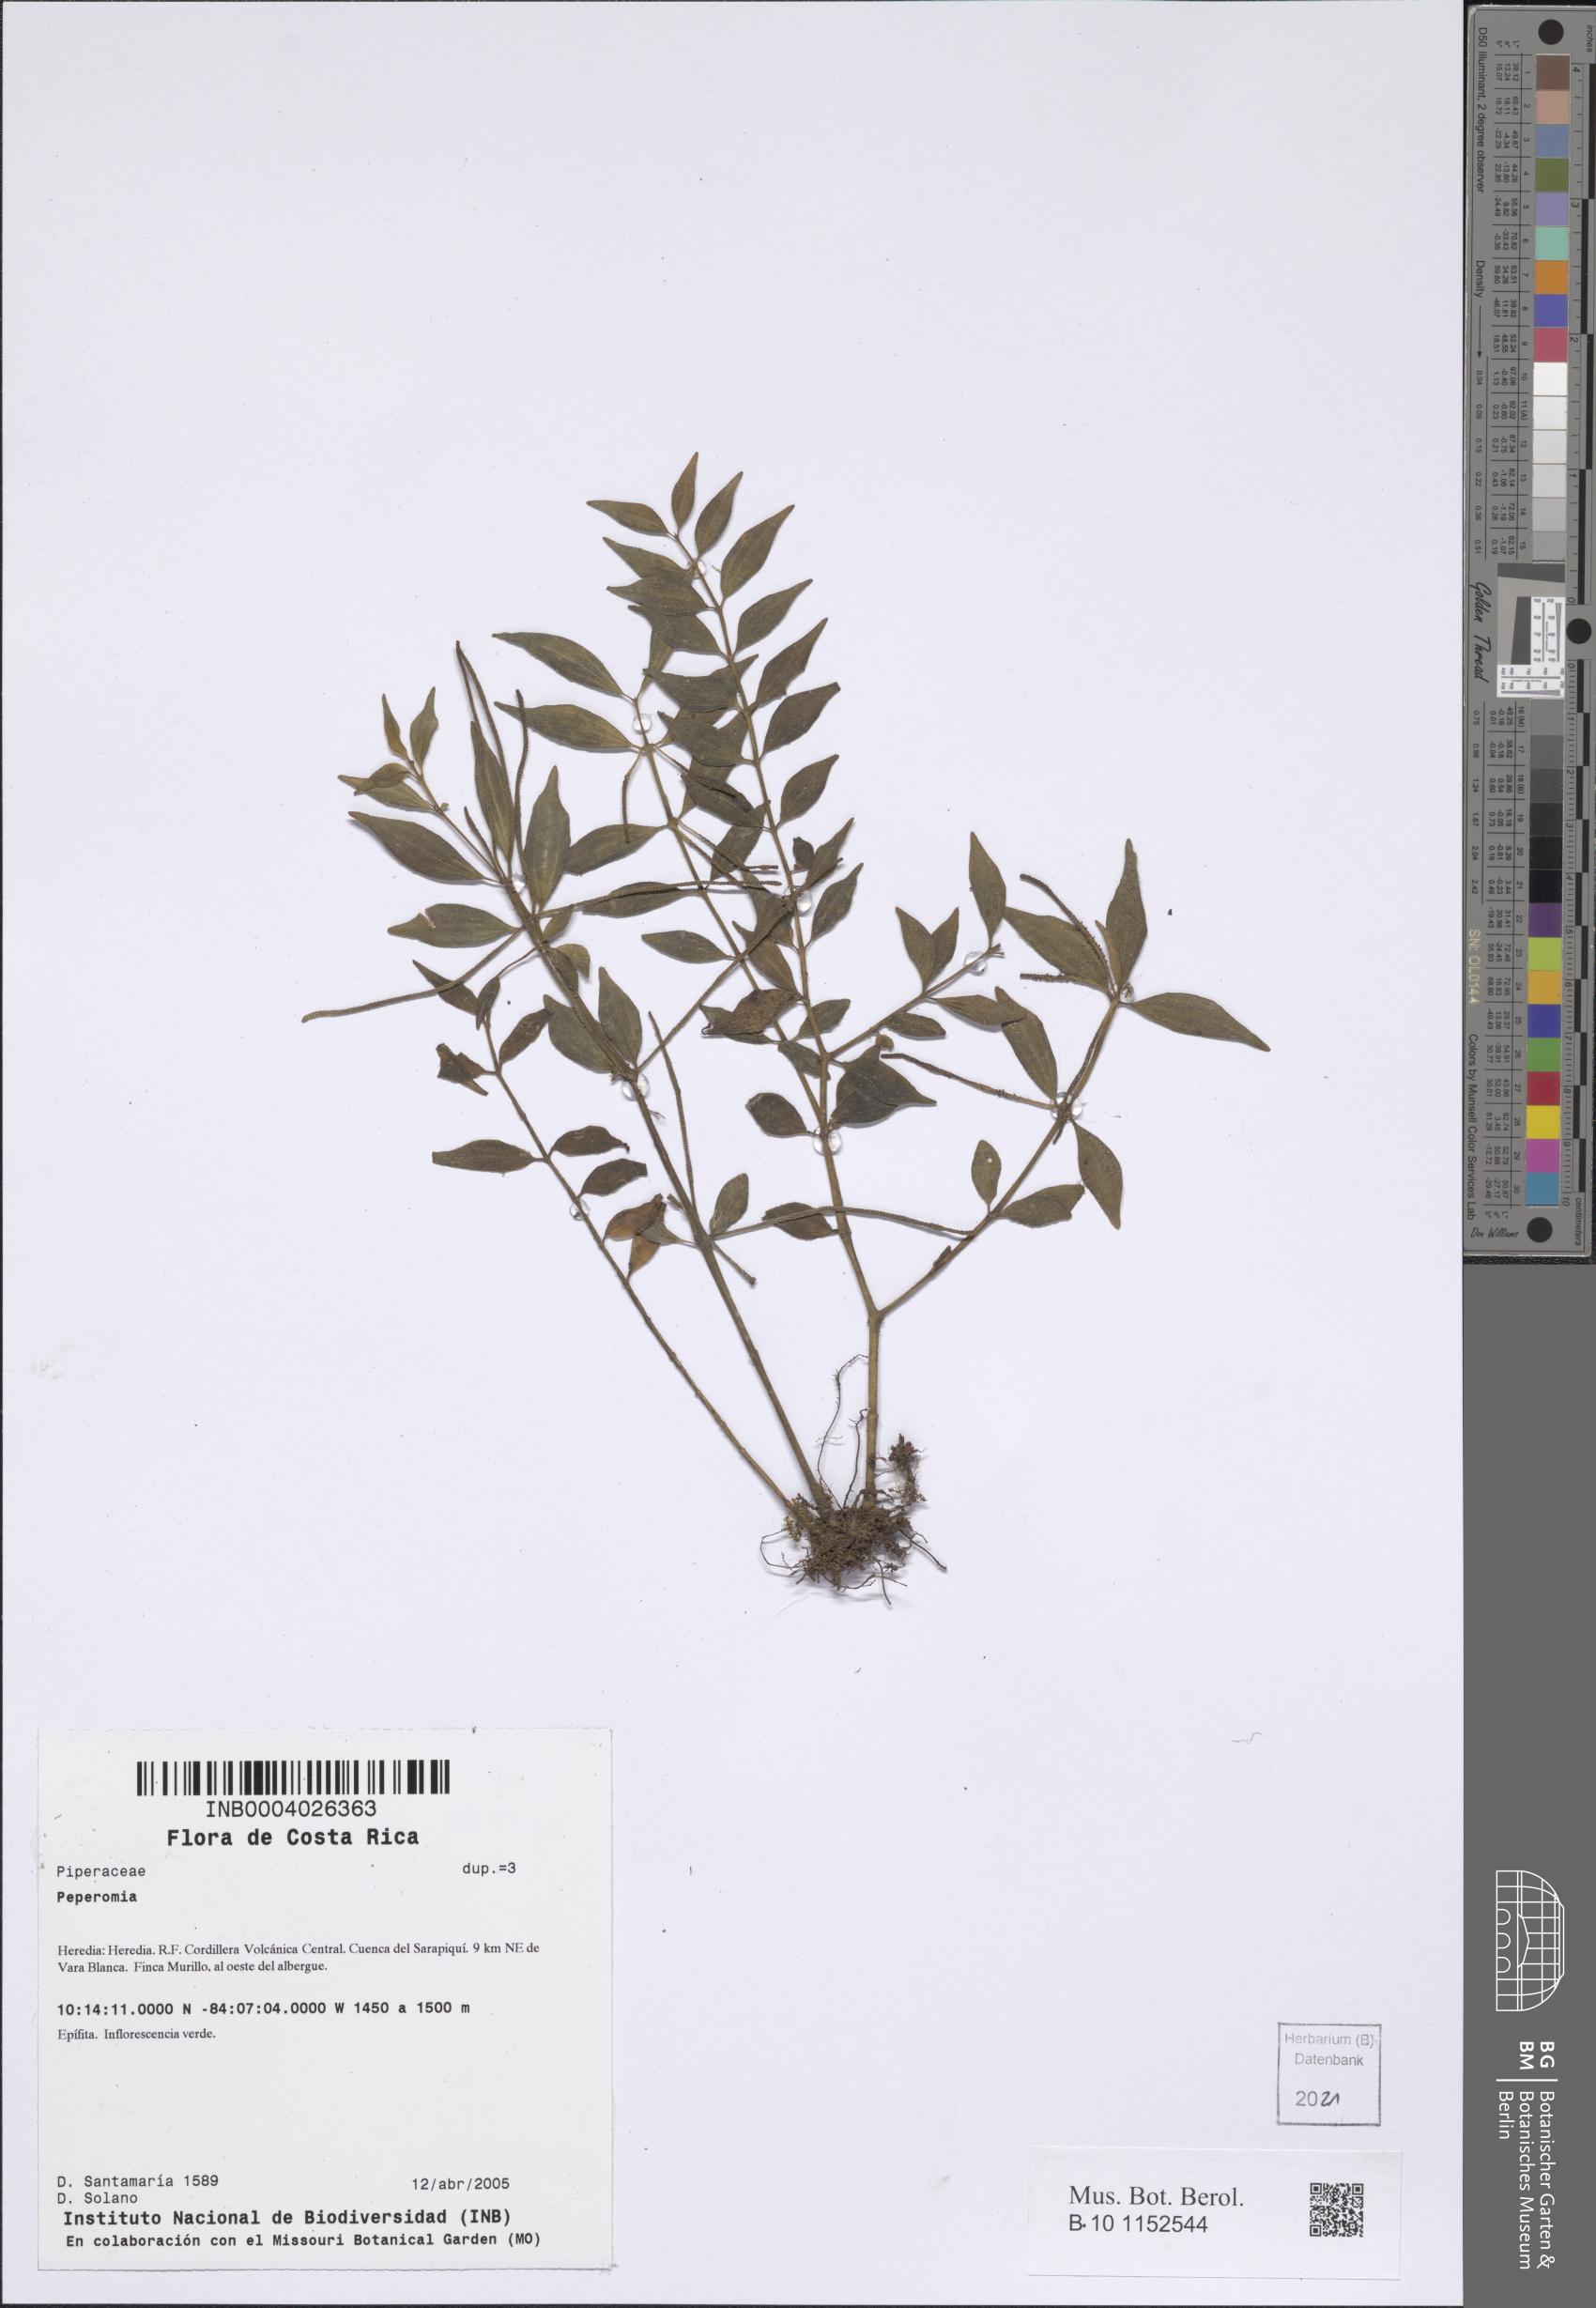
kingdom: Plantae
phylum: Tracheophyta
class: Magnoliopsida
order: Piperales
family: Piperaceae
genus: Peperomia
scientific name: Peperomia
